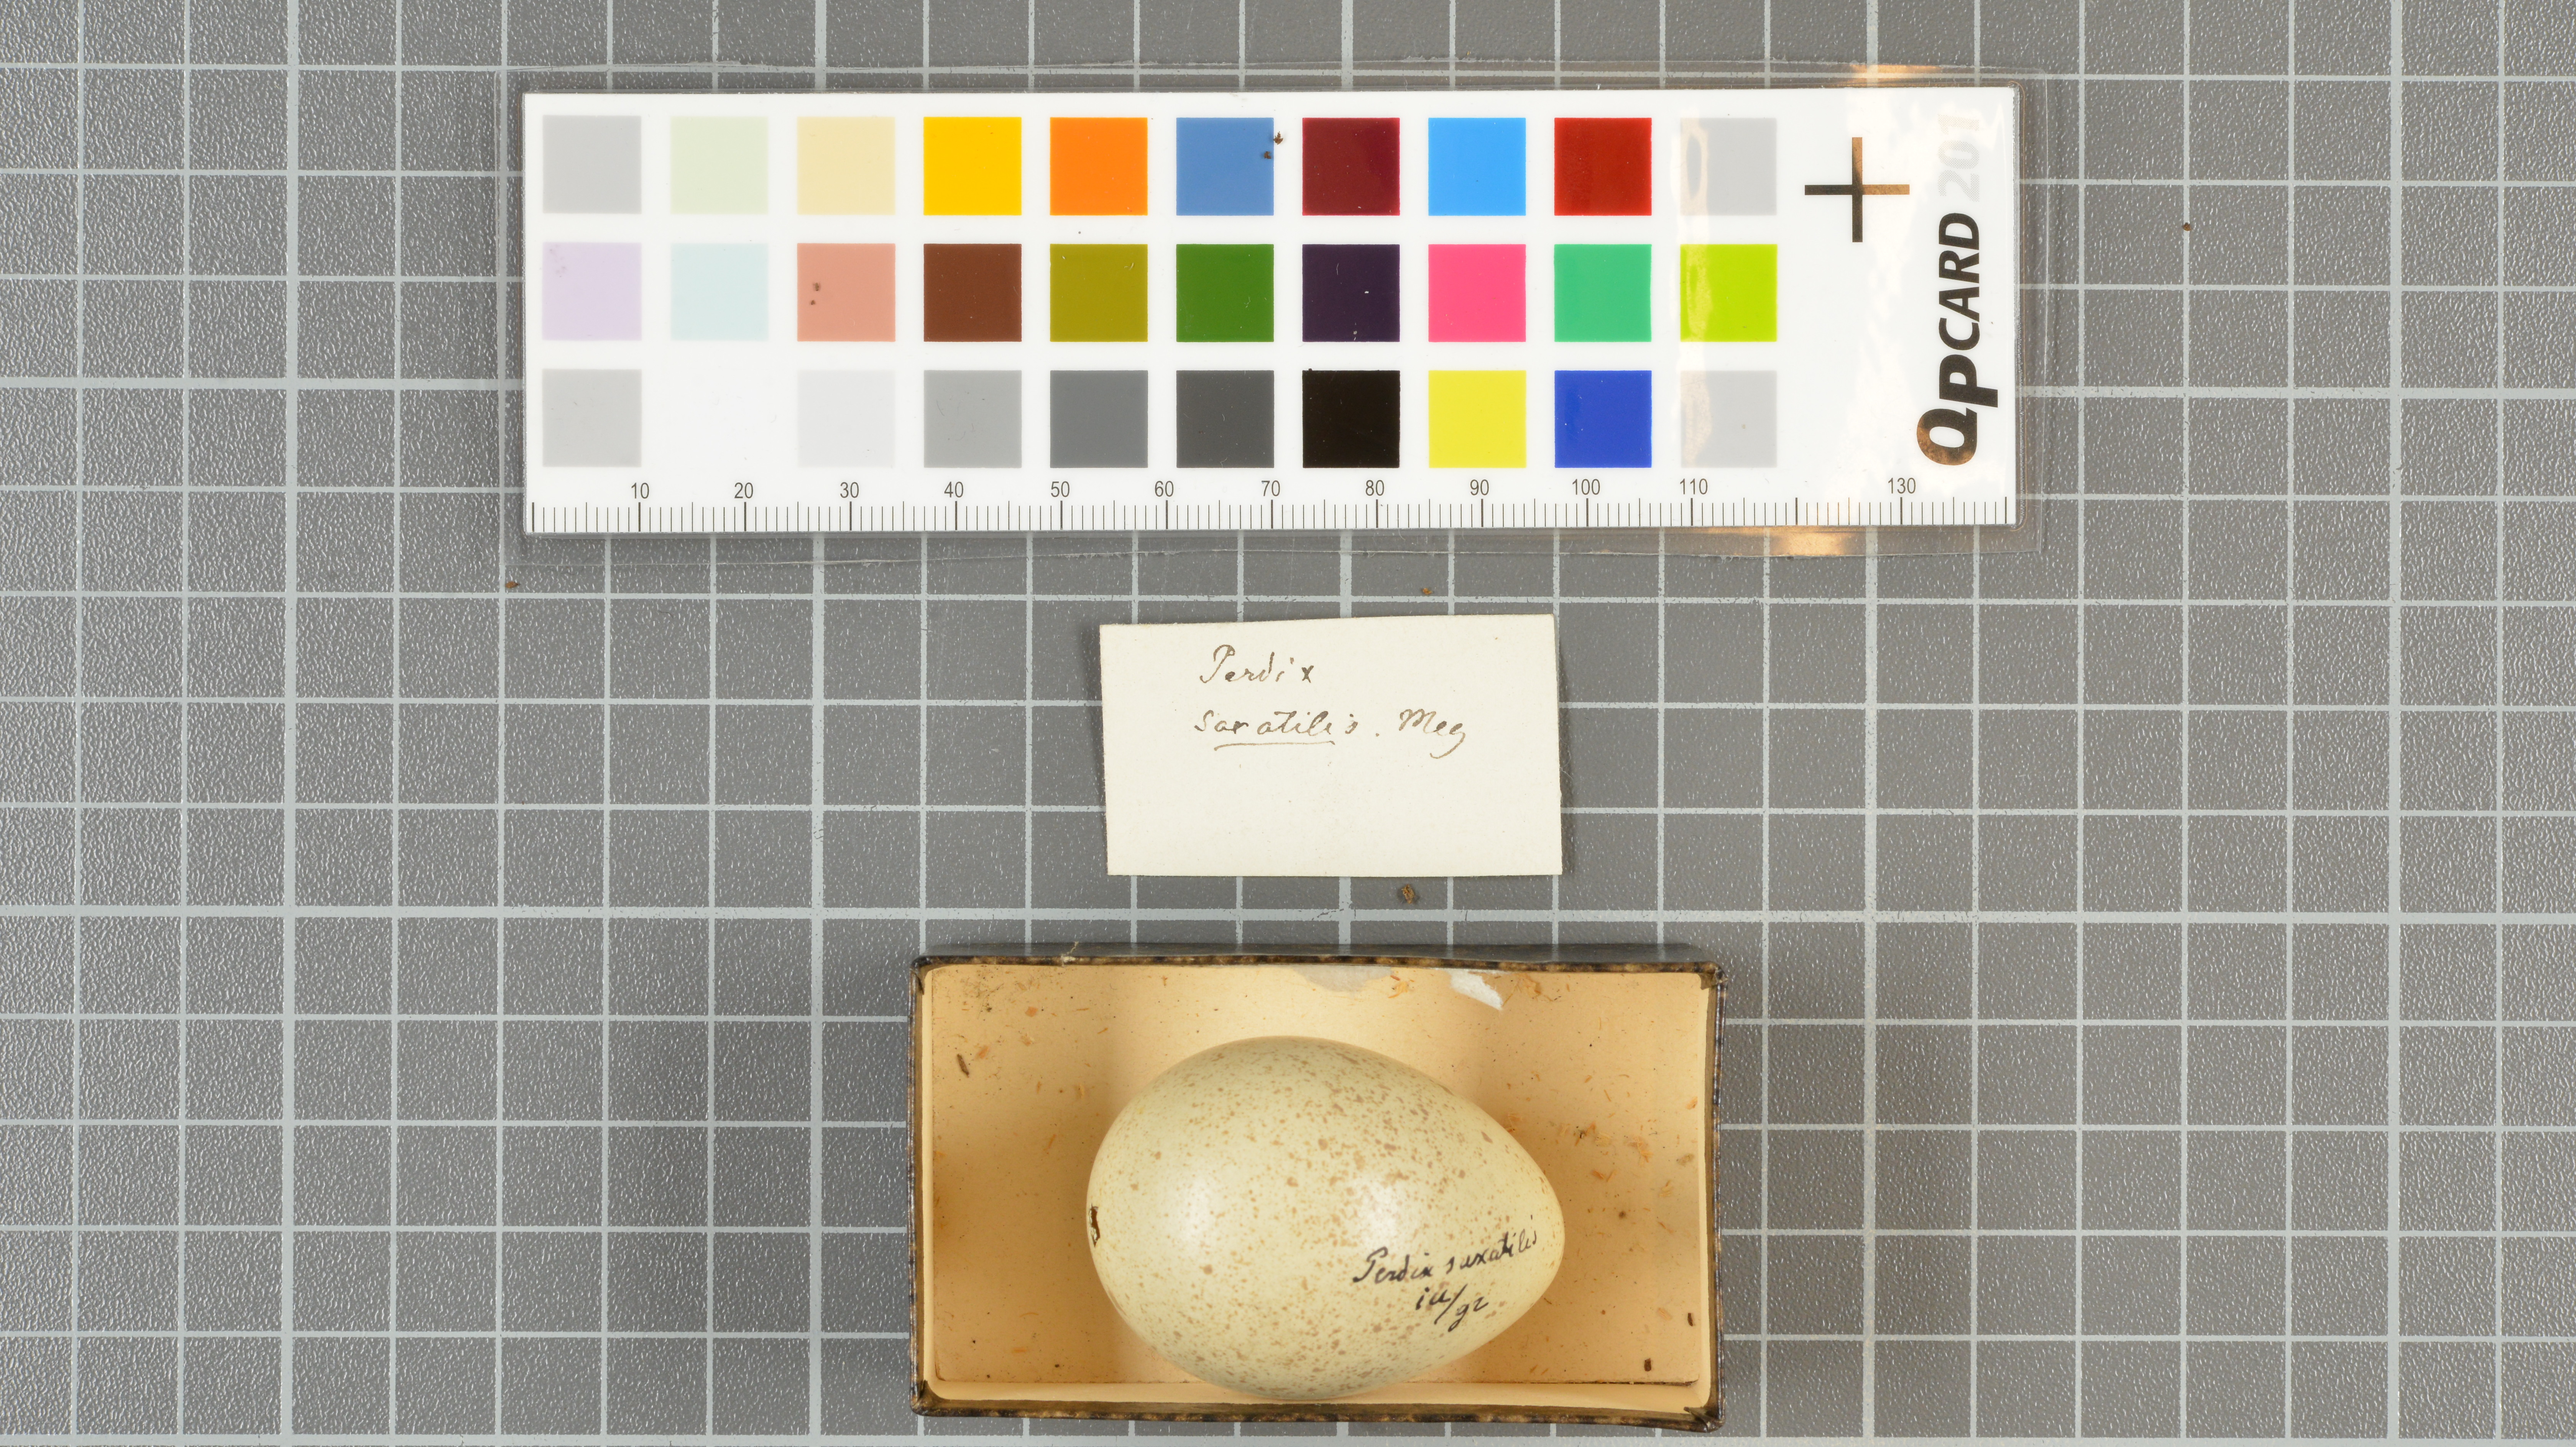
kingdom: Animalia
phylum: Chordata
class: Aves
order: Galliformes
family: Phasianidae
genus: Alectoris
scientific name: Alectoris graeca
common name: Rock partridge
